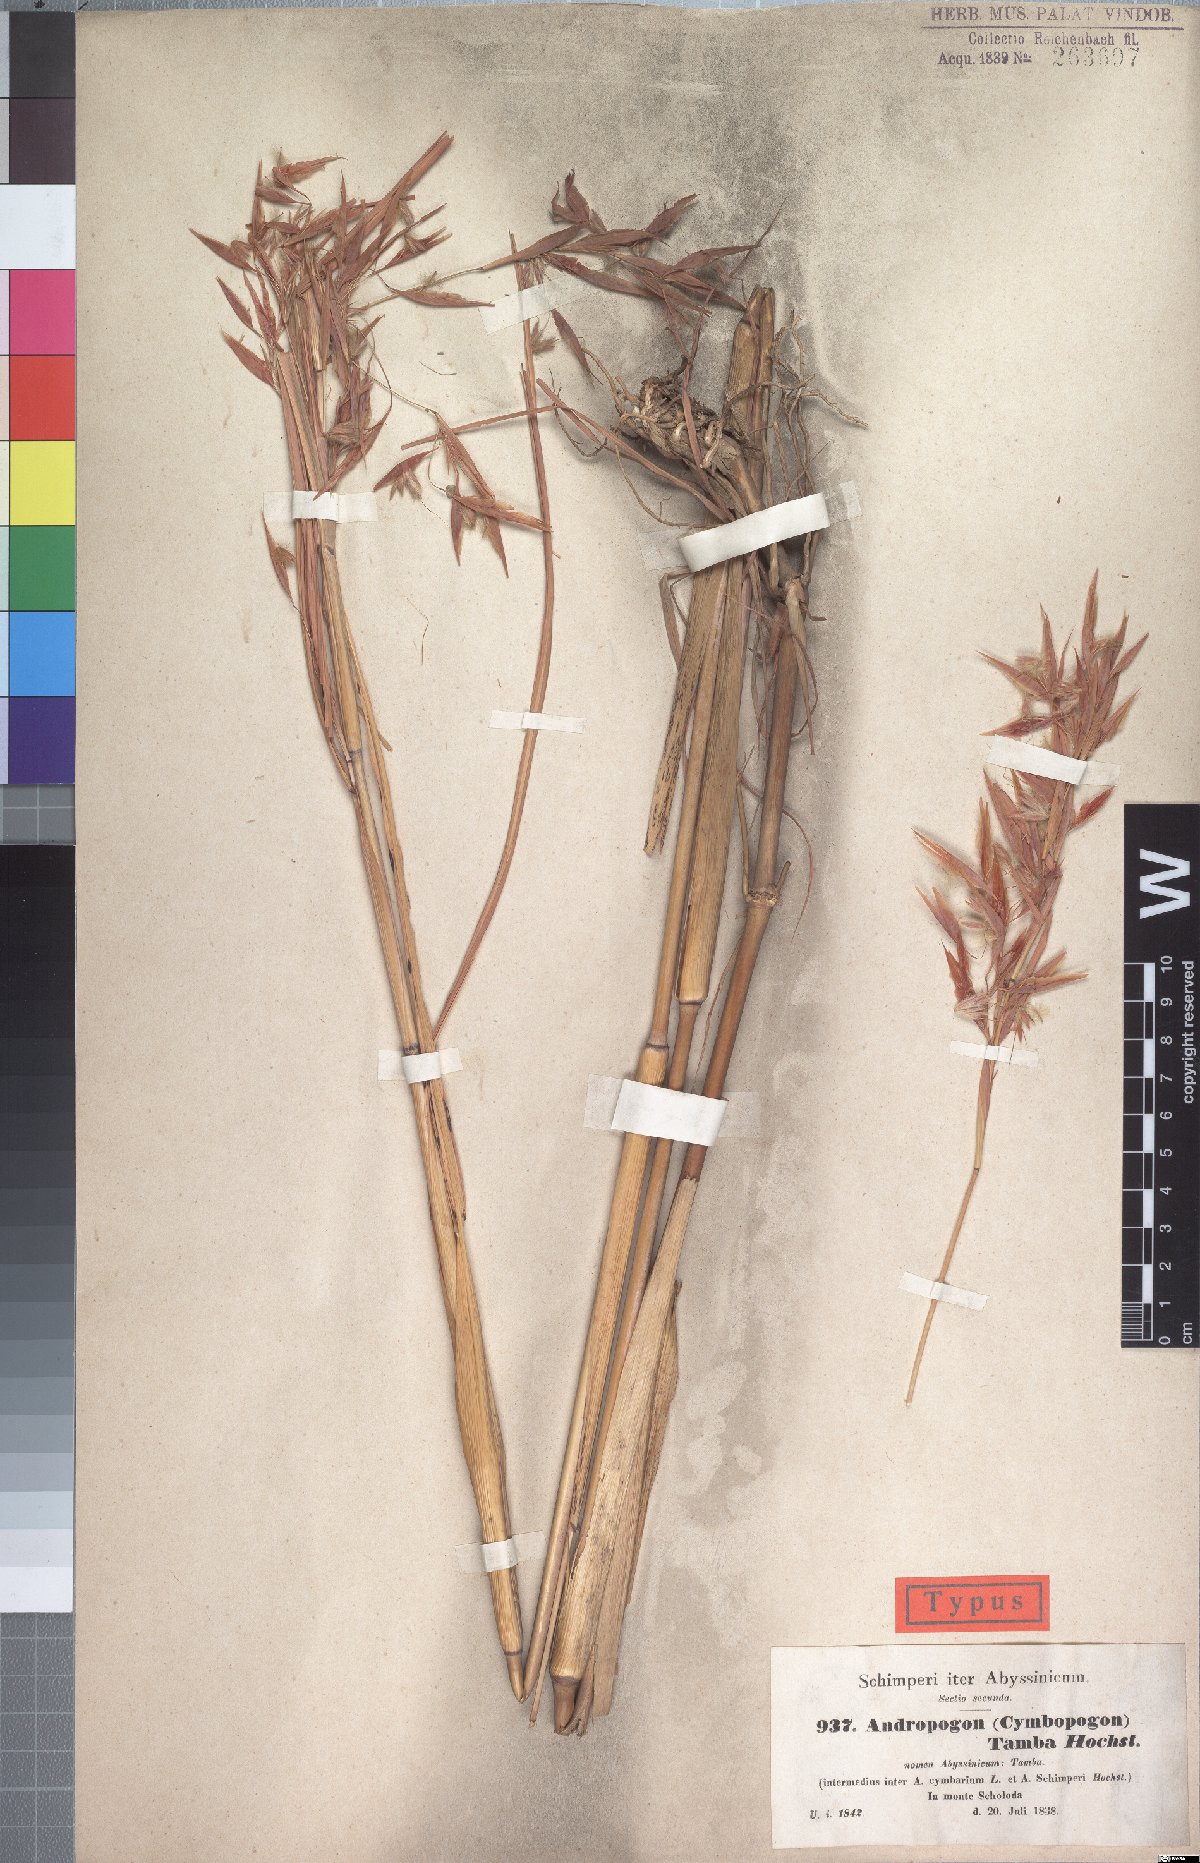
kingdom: Plantae
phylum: Tracheophyta
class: Liliopsida
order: Poales
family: Poaceae
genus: Hyparrhenia
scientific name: Hyparrhenia tamba
